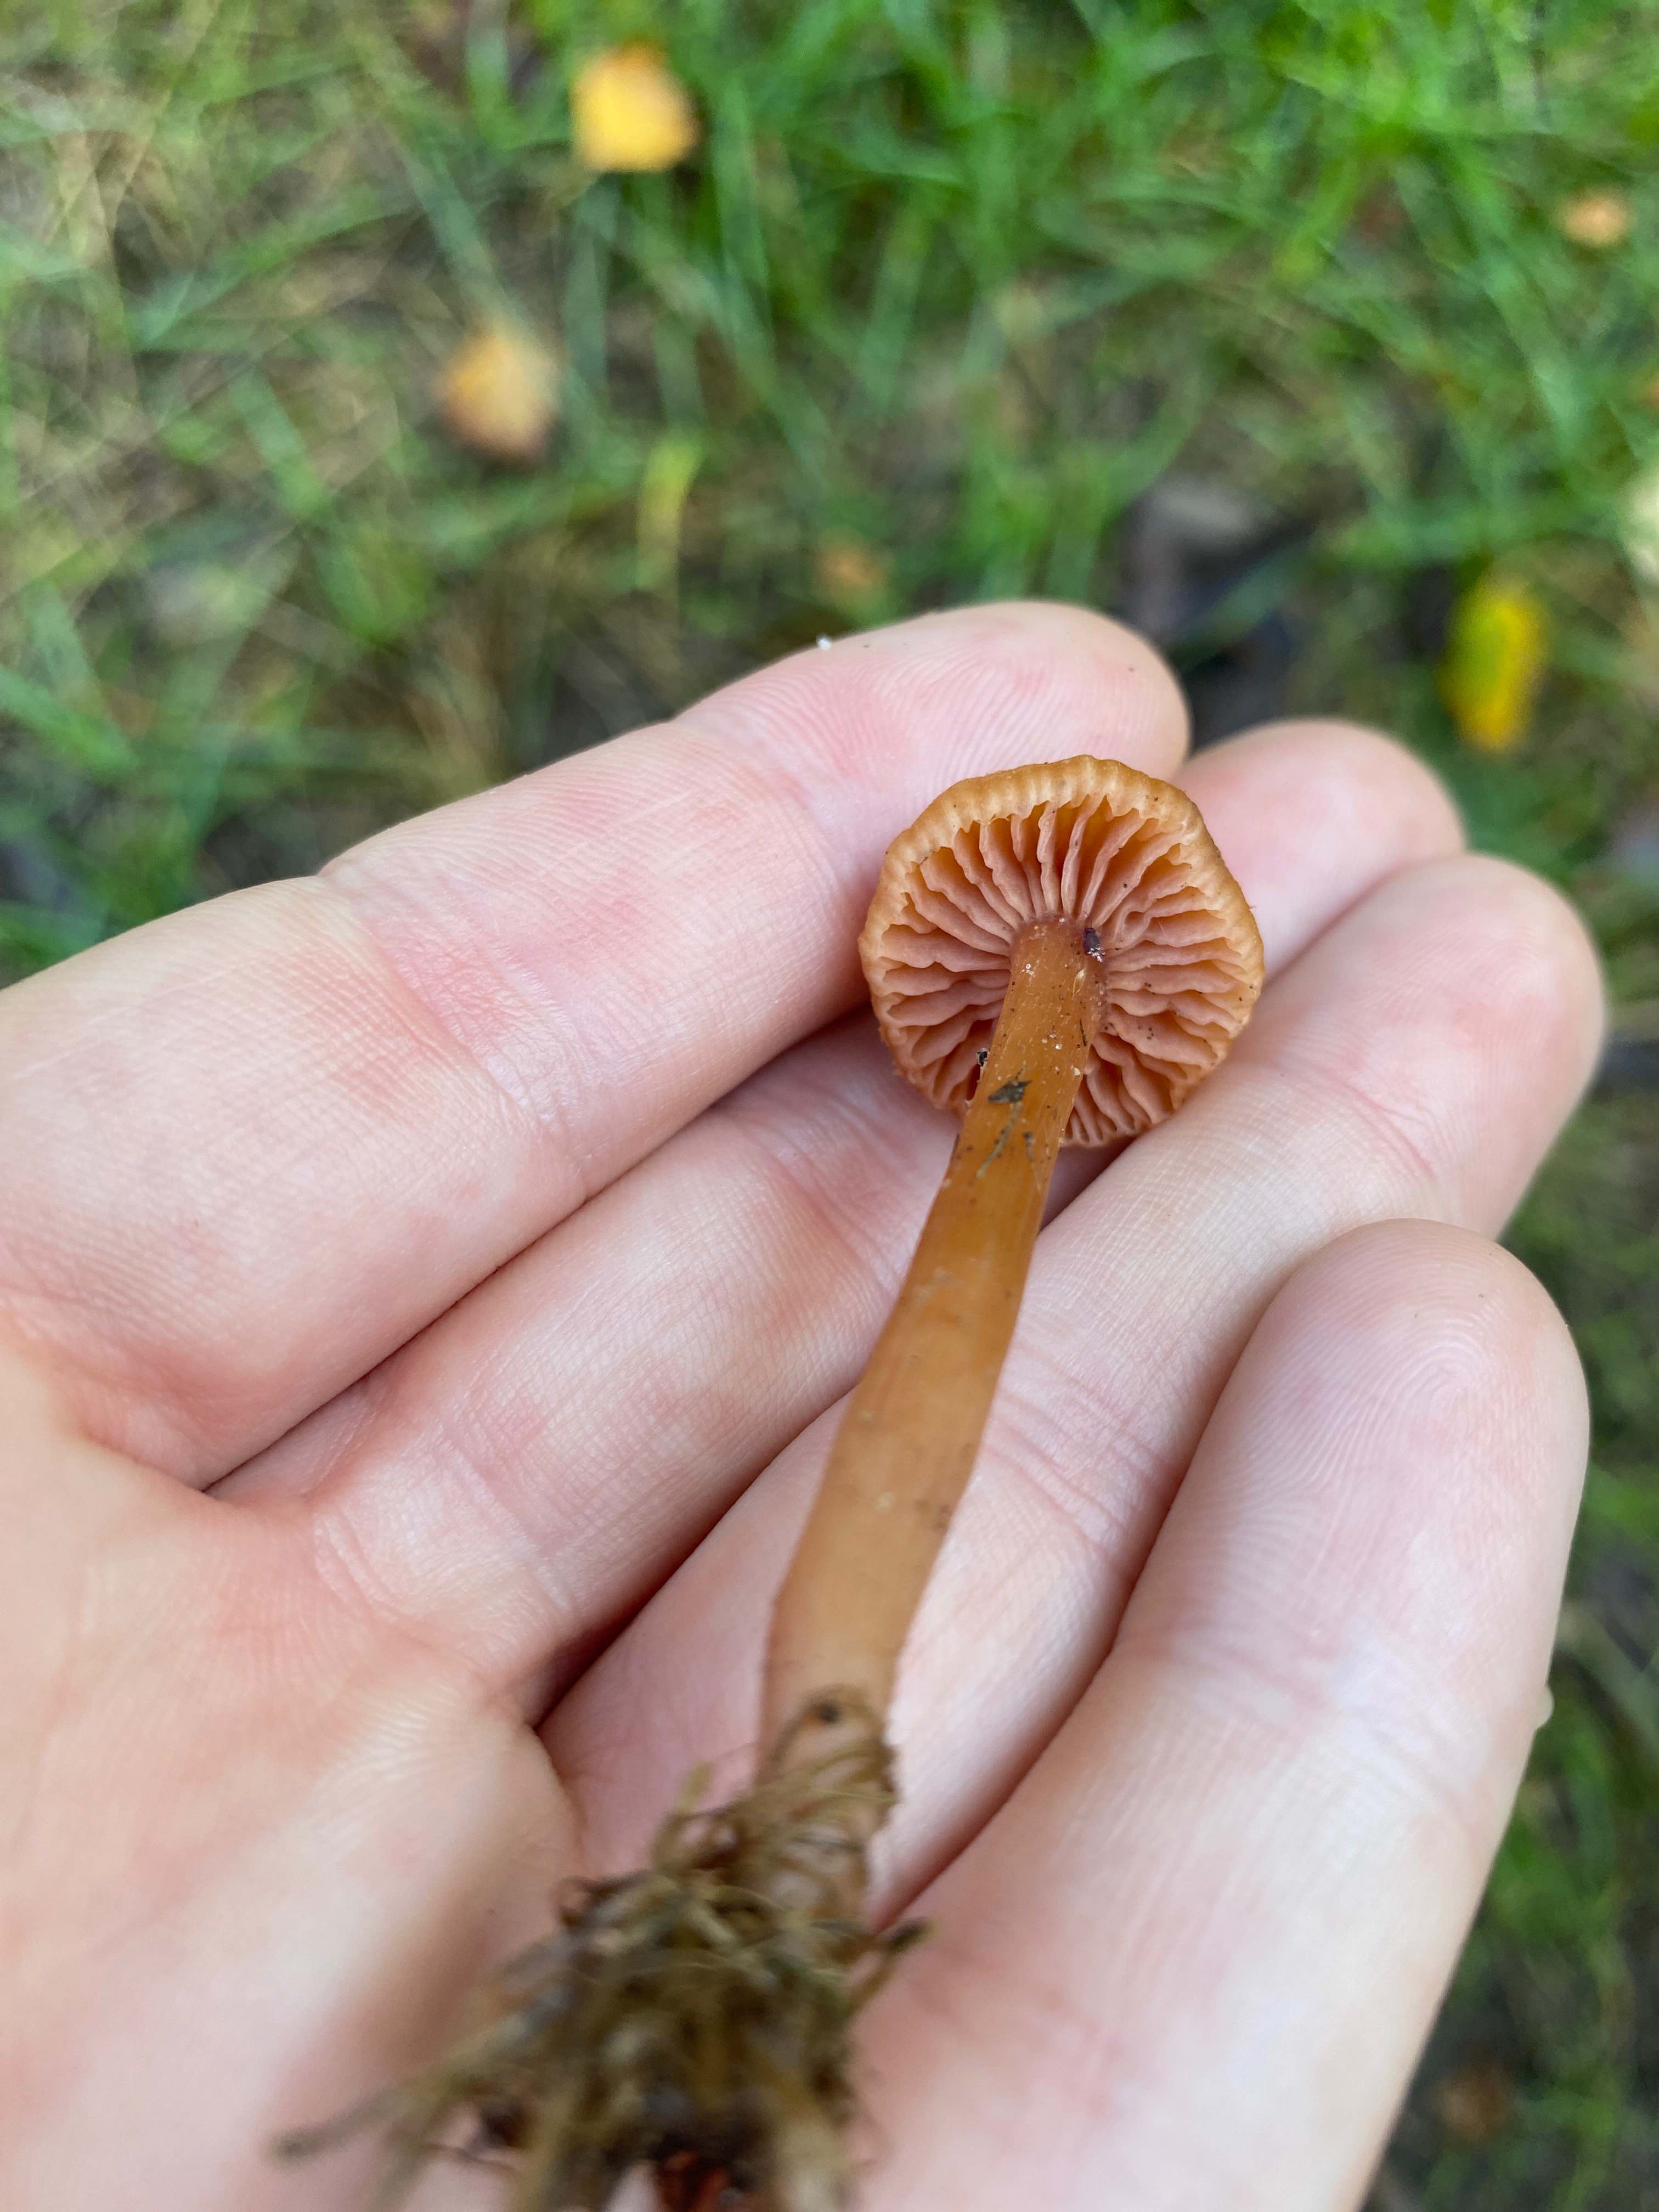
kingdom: Fungi
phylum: Basidiomycota
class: Agaricomycetes
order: Agaricales
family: Hydnangiaceae
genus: Laccaria
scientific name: Laccaria laccata
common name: rød ametysthat
